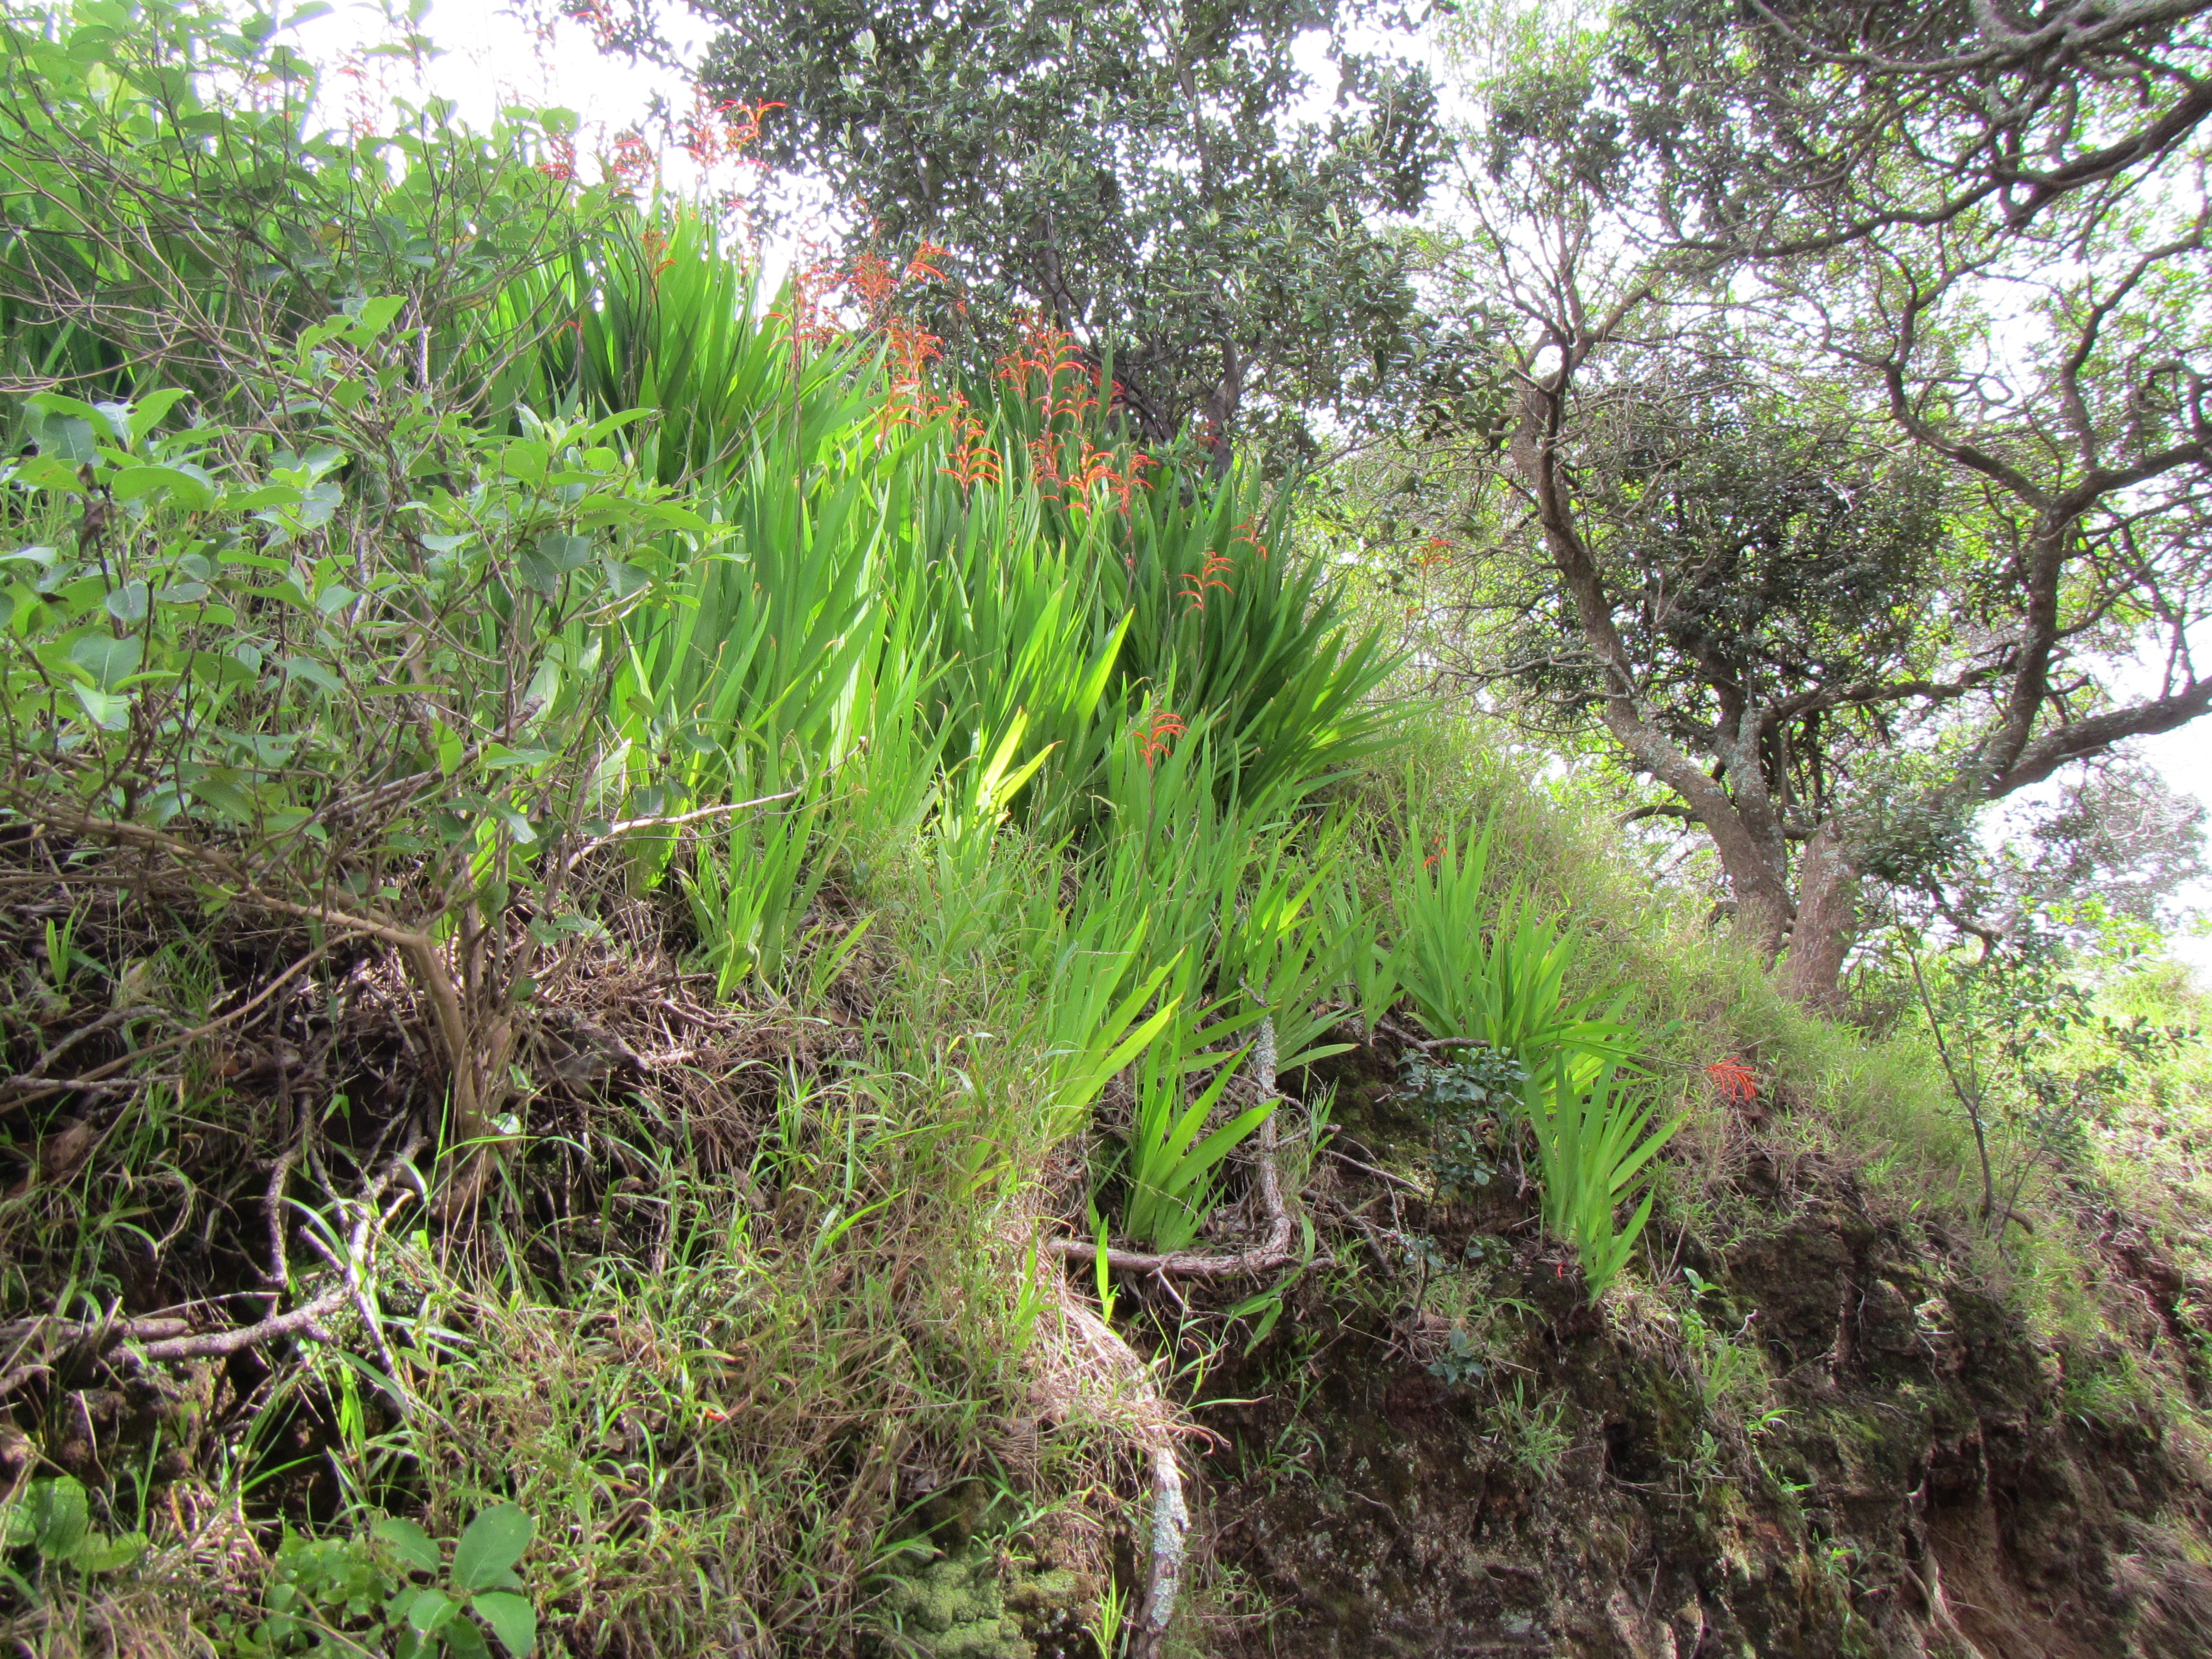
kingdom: Plantae
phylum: Tracheophyta
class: Liliopsida
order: Asparagales
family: Iridaceae
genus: Chasmanthe
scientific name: Chasmanthe bicolor
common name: Bicolor cobra lily
